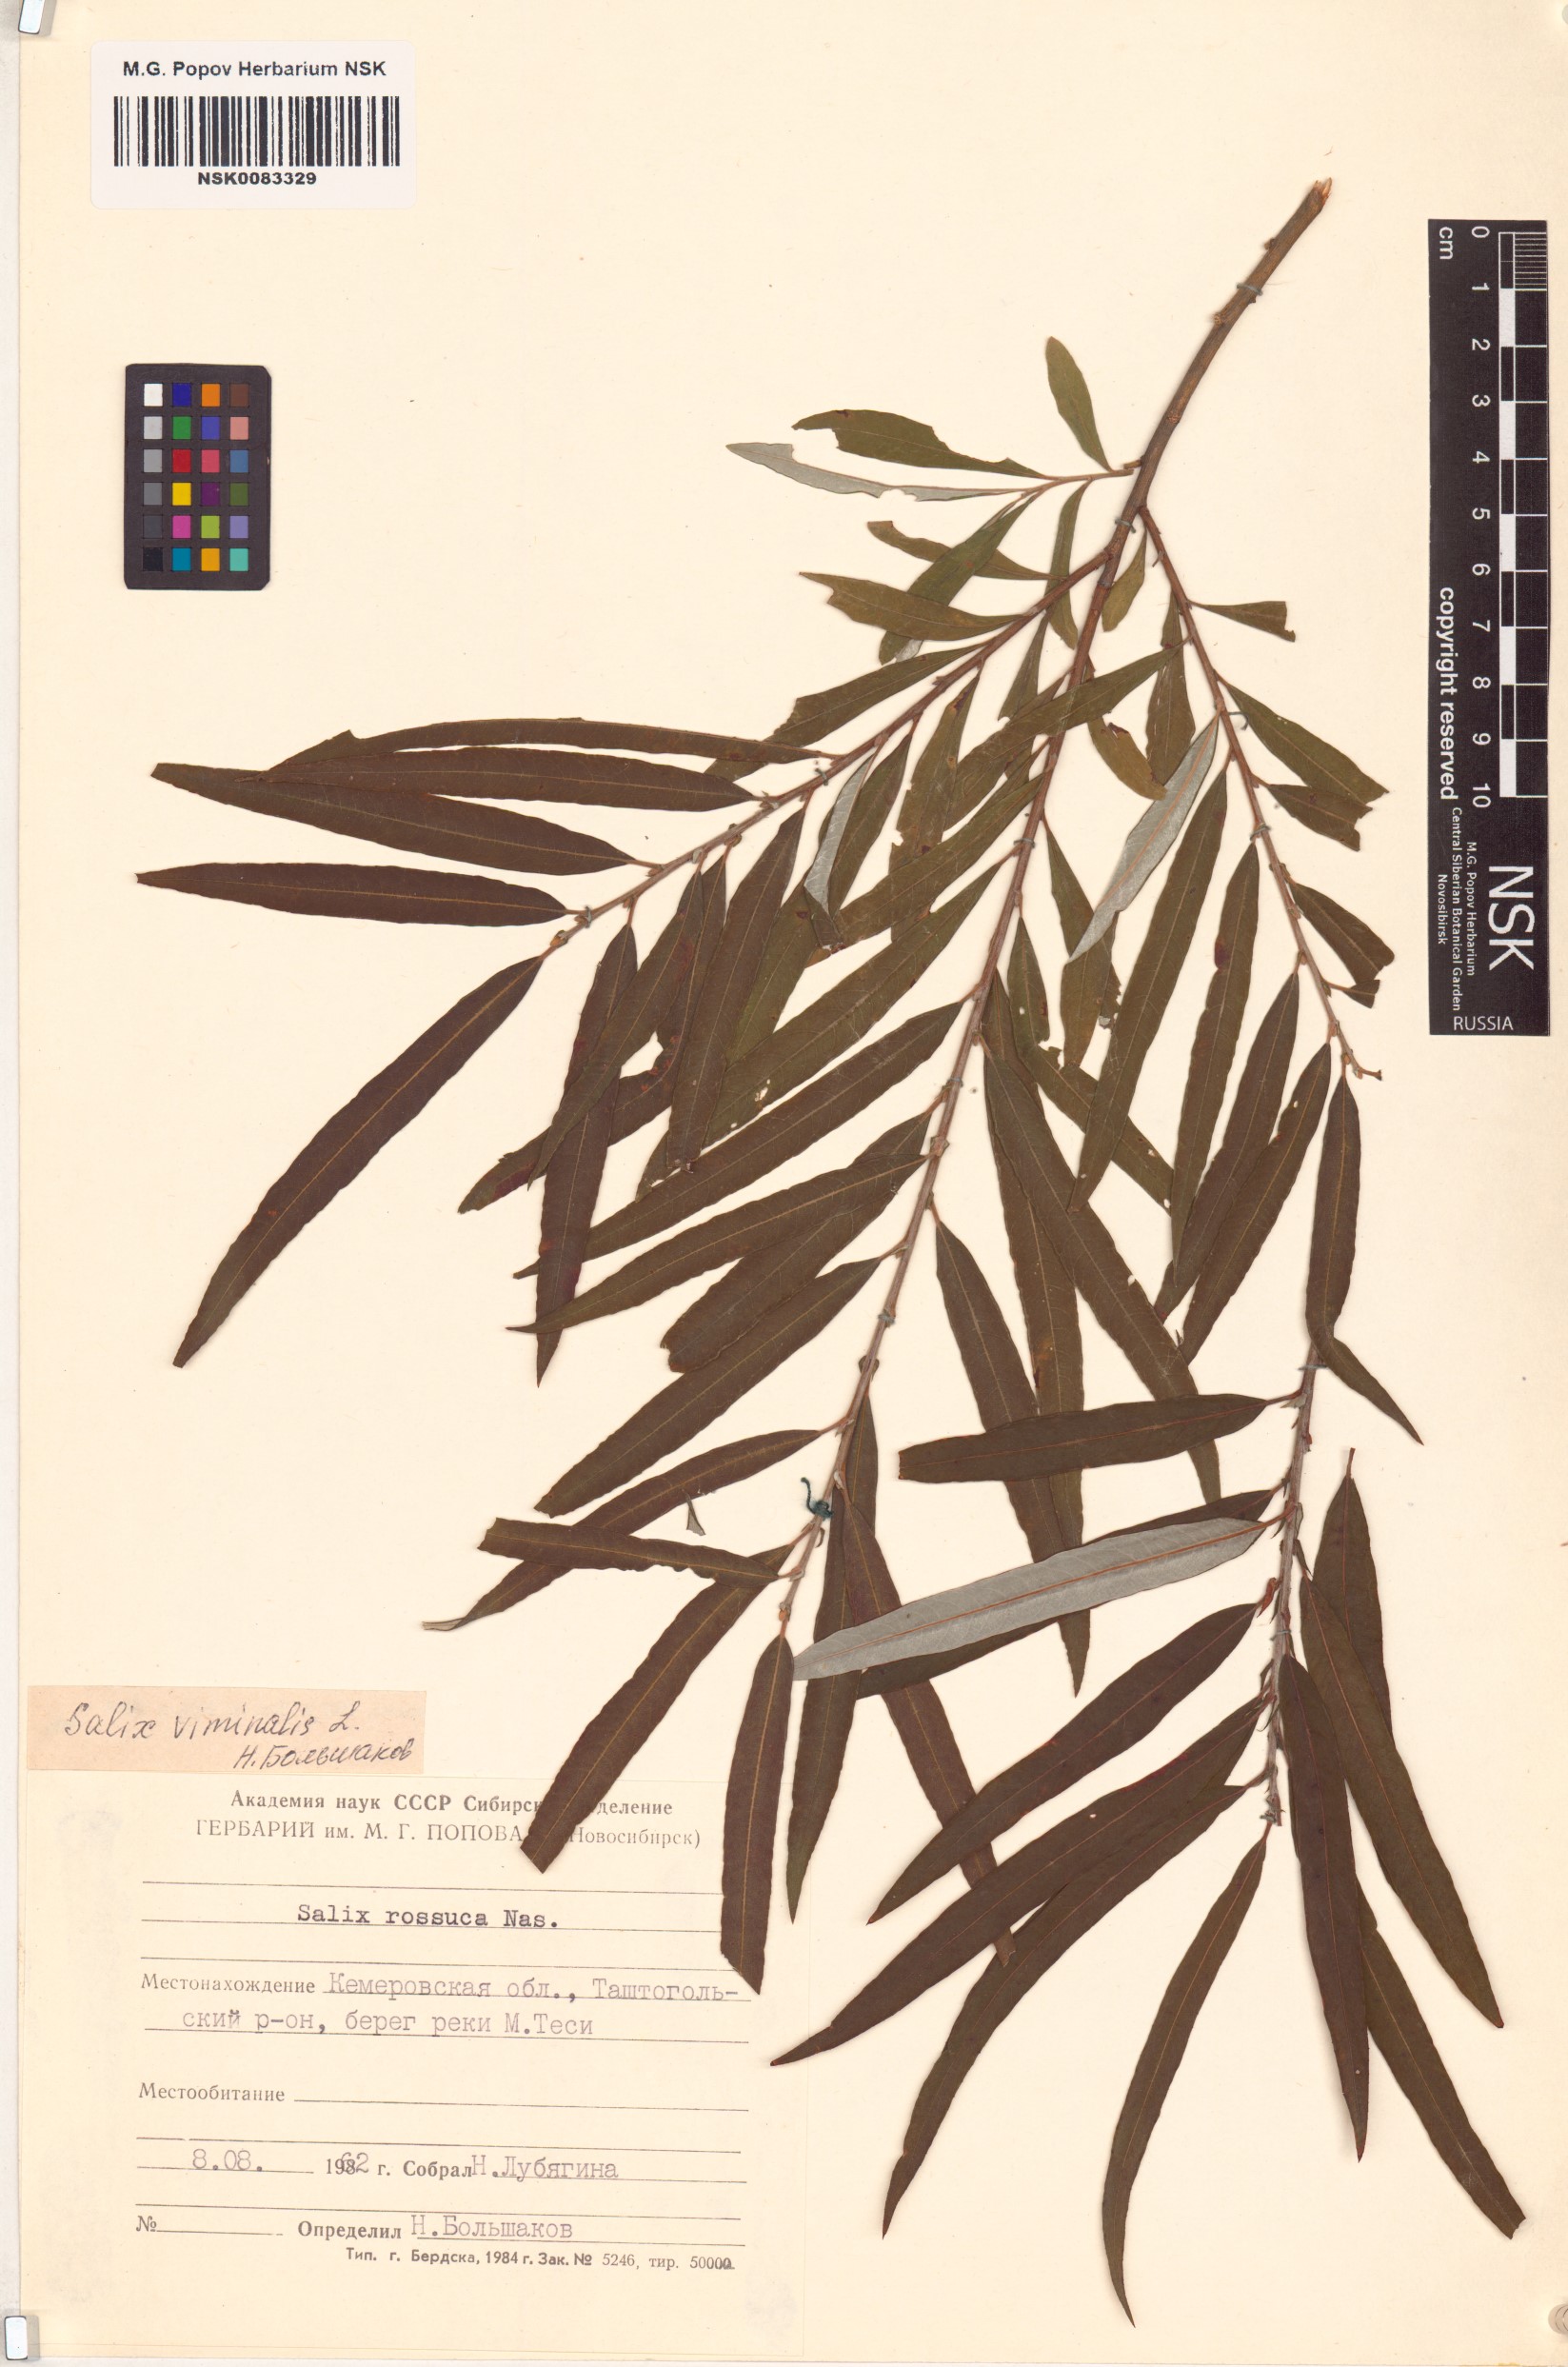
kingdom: Plantae
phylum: Tracheophyta
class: Magnoliopsida
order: Malpighiales
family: Salicaceae
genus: Salix
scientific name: Salix viminalis
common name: Osier
